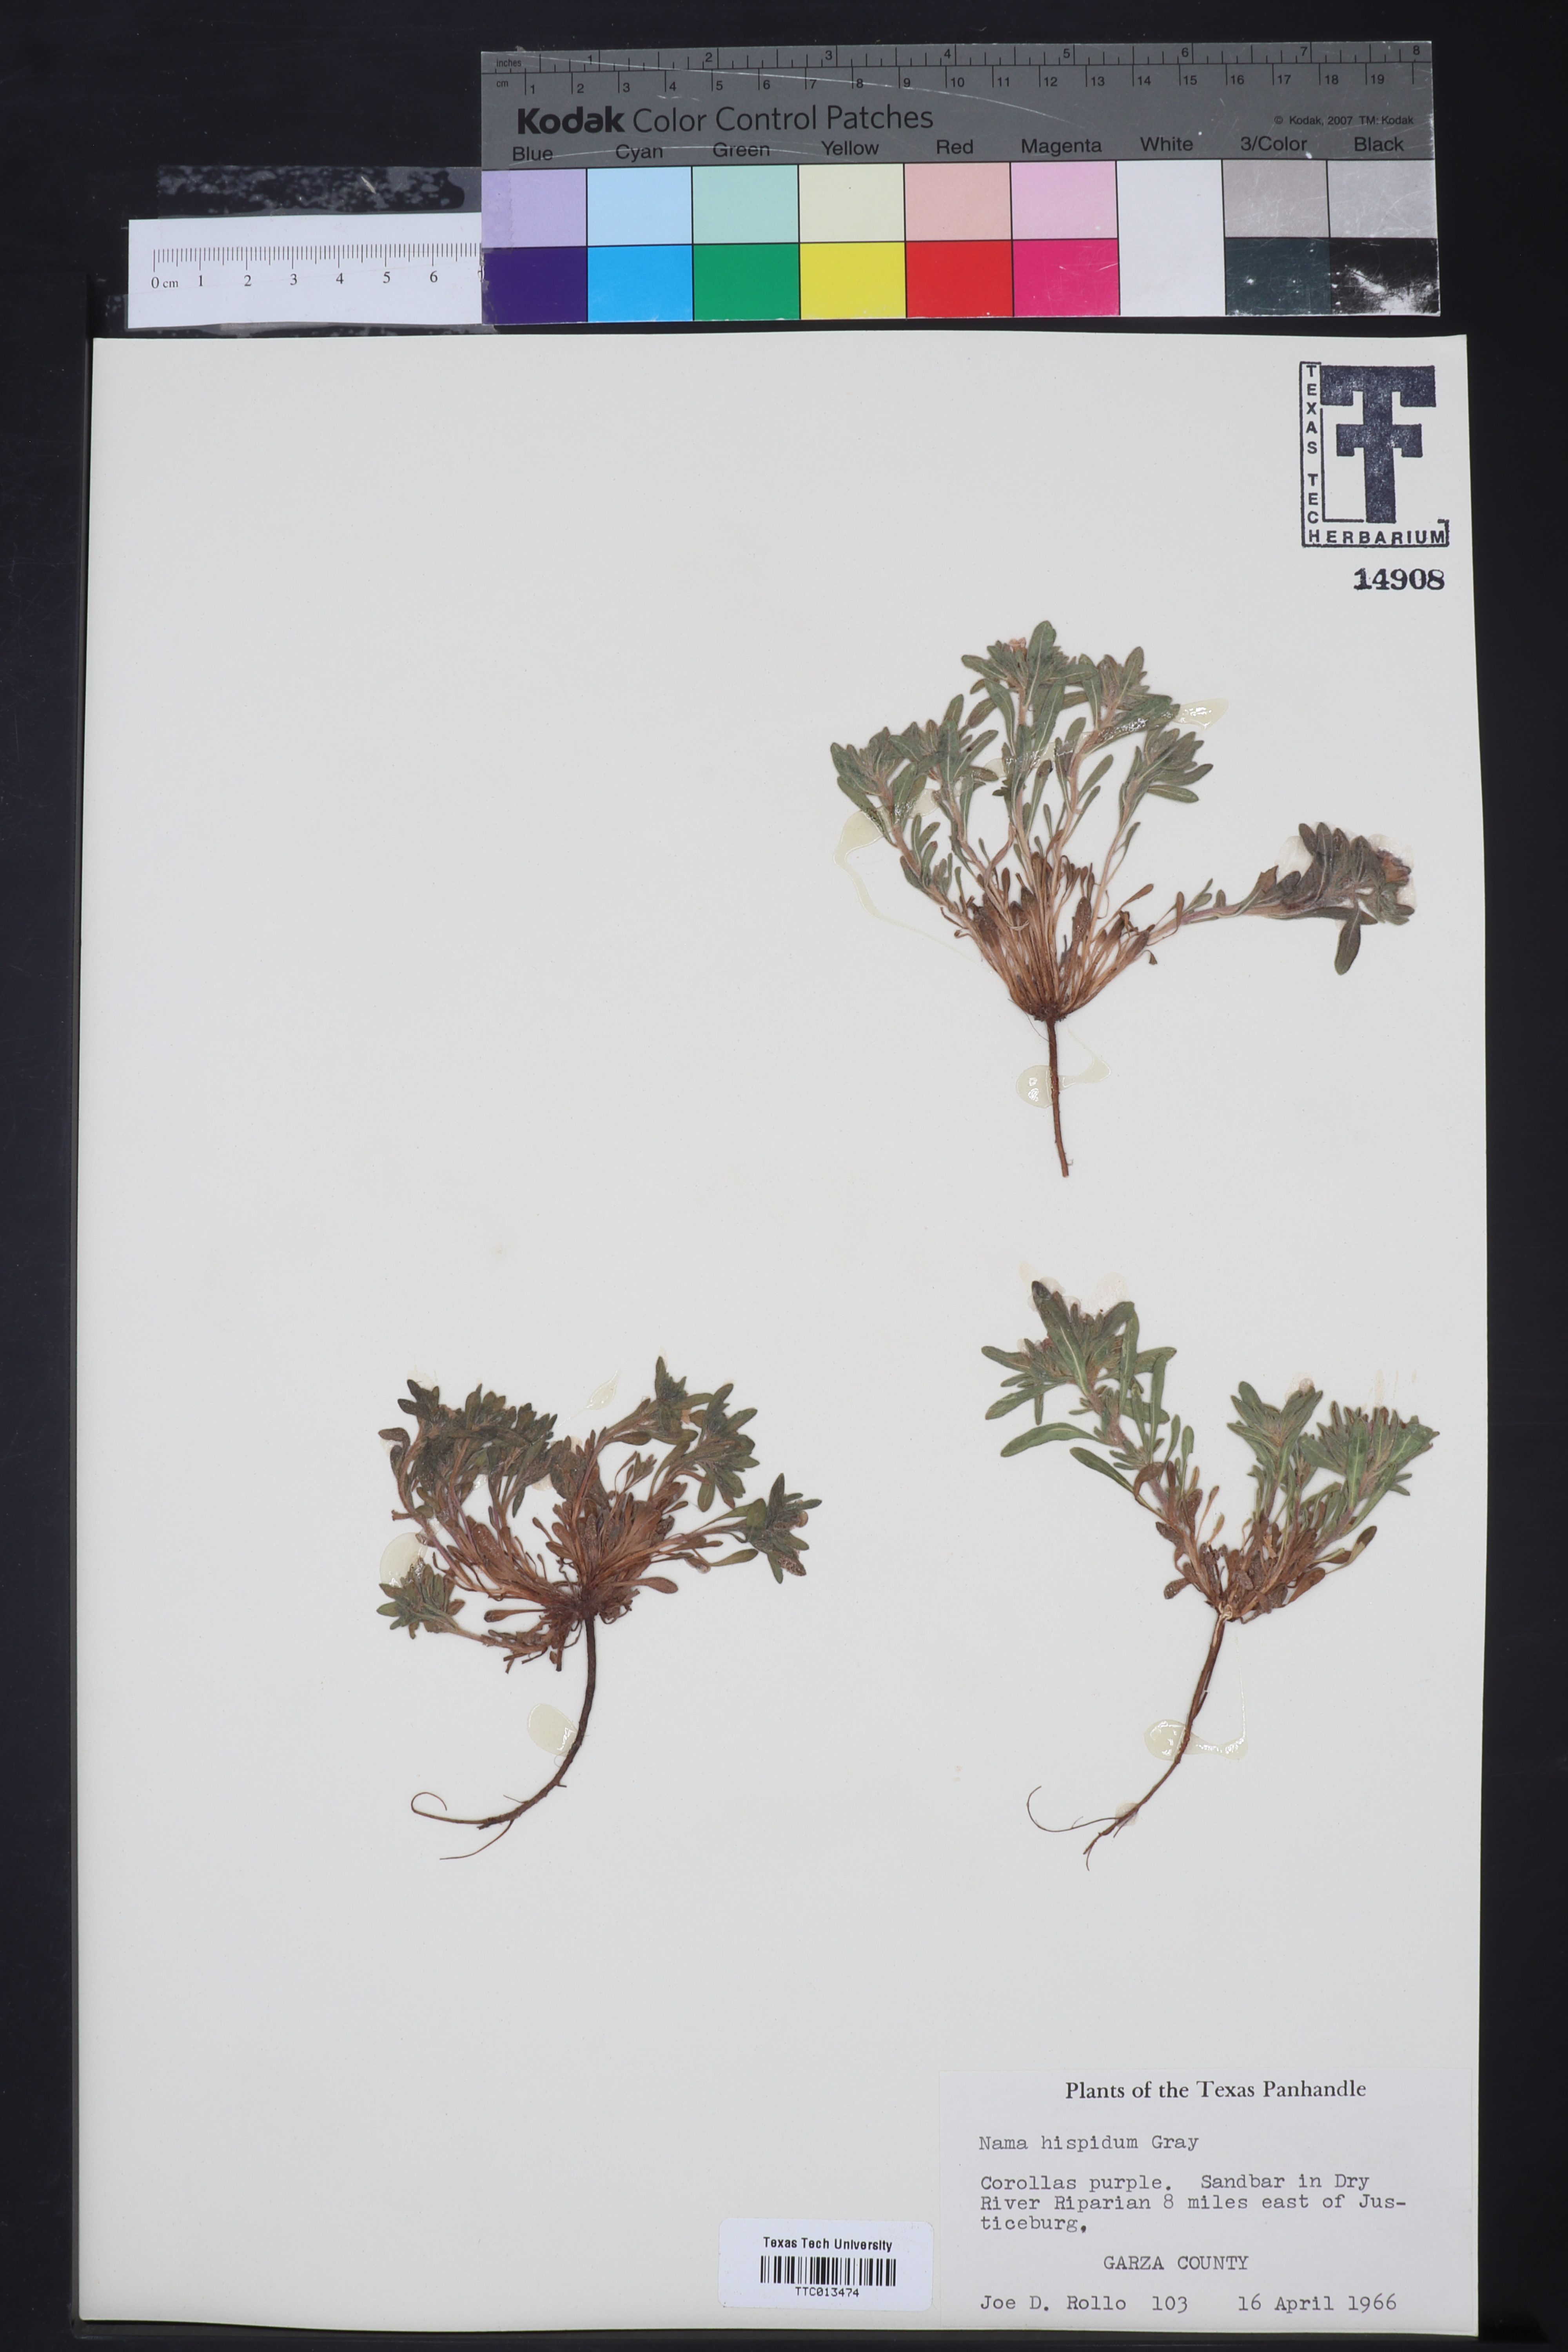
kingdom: Plantae
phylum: Tracheophyta
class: Magnoliopsida
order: Boraginales
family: Namaceae
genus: Nama
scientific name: Nama hispida
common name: Bristly nama
